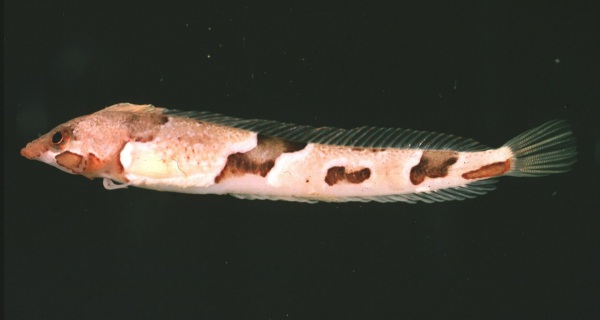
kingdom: Animalia
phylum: Chordata
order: Perciformes
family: Clinidae
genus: Pavoclinus
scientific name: Pavoclinus smalei
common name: Deep-reef klipfish
